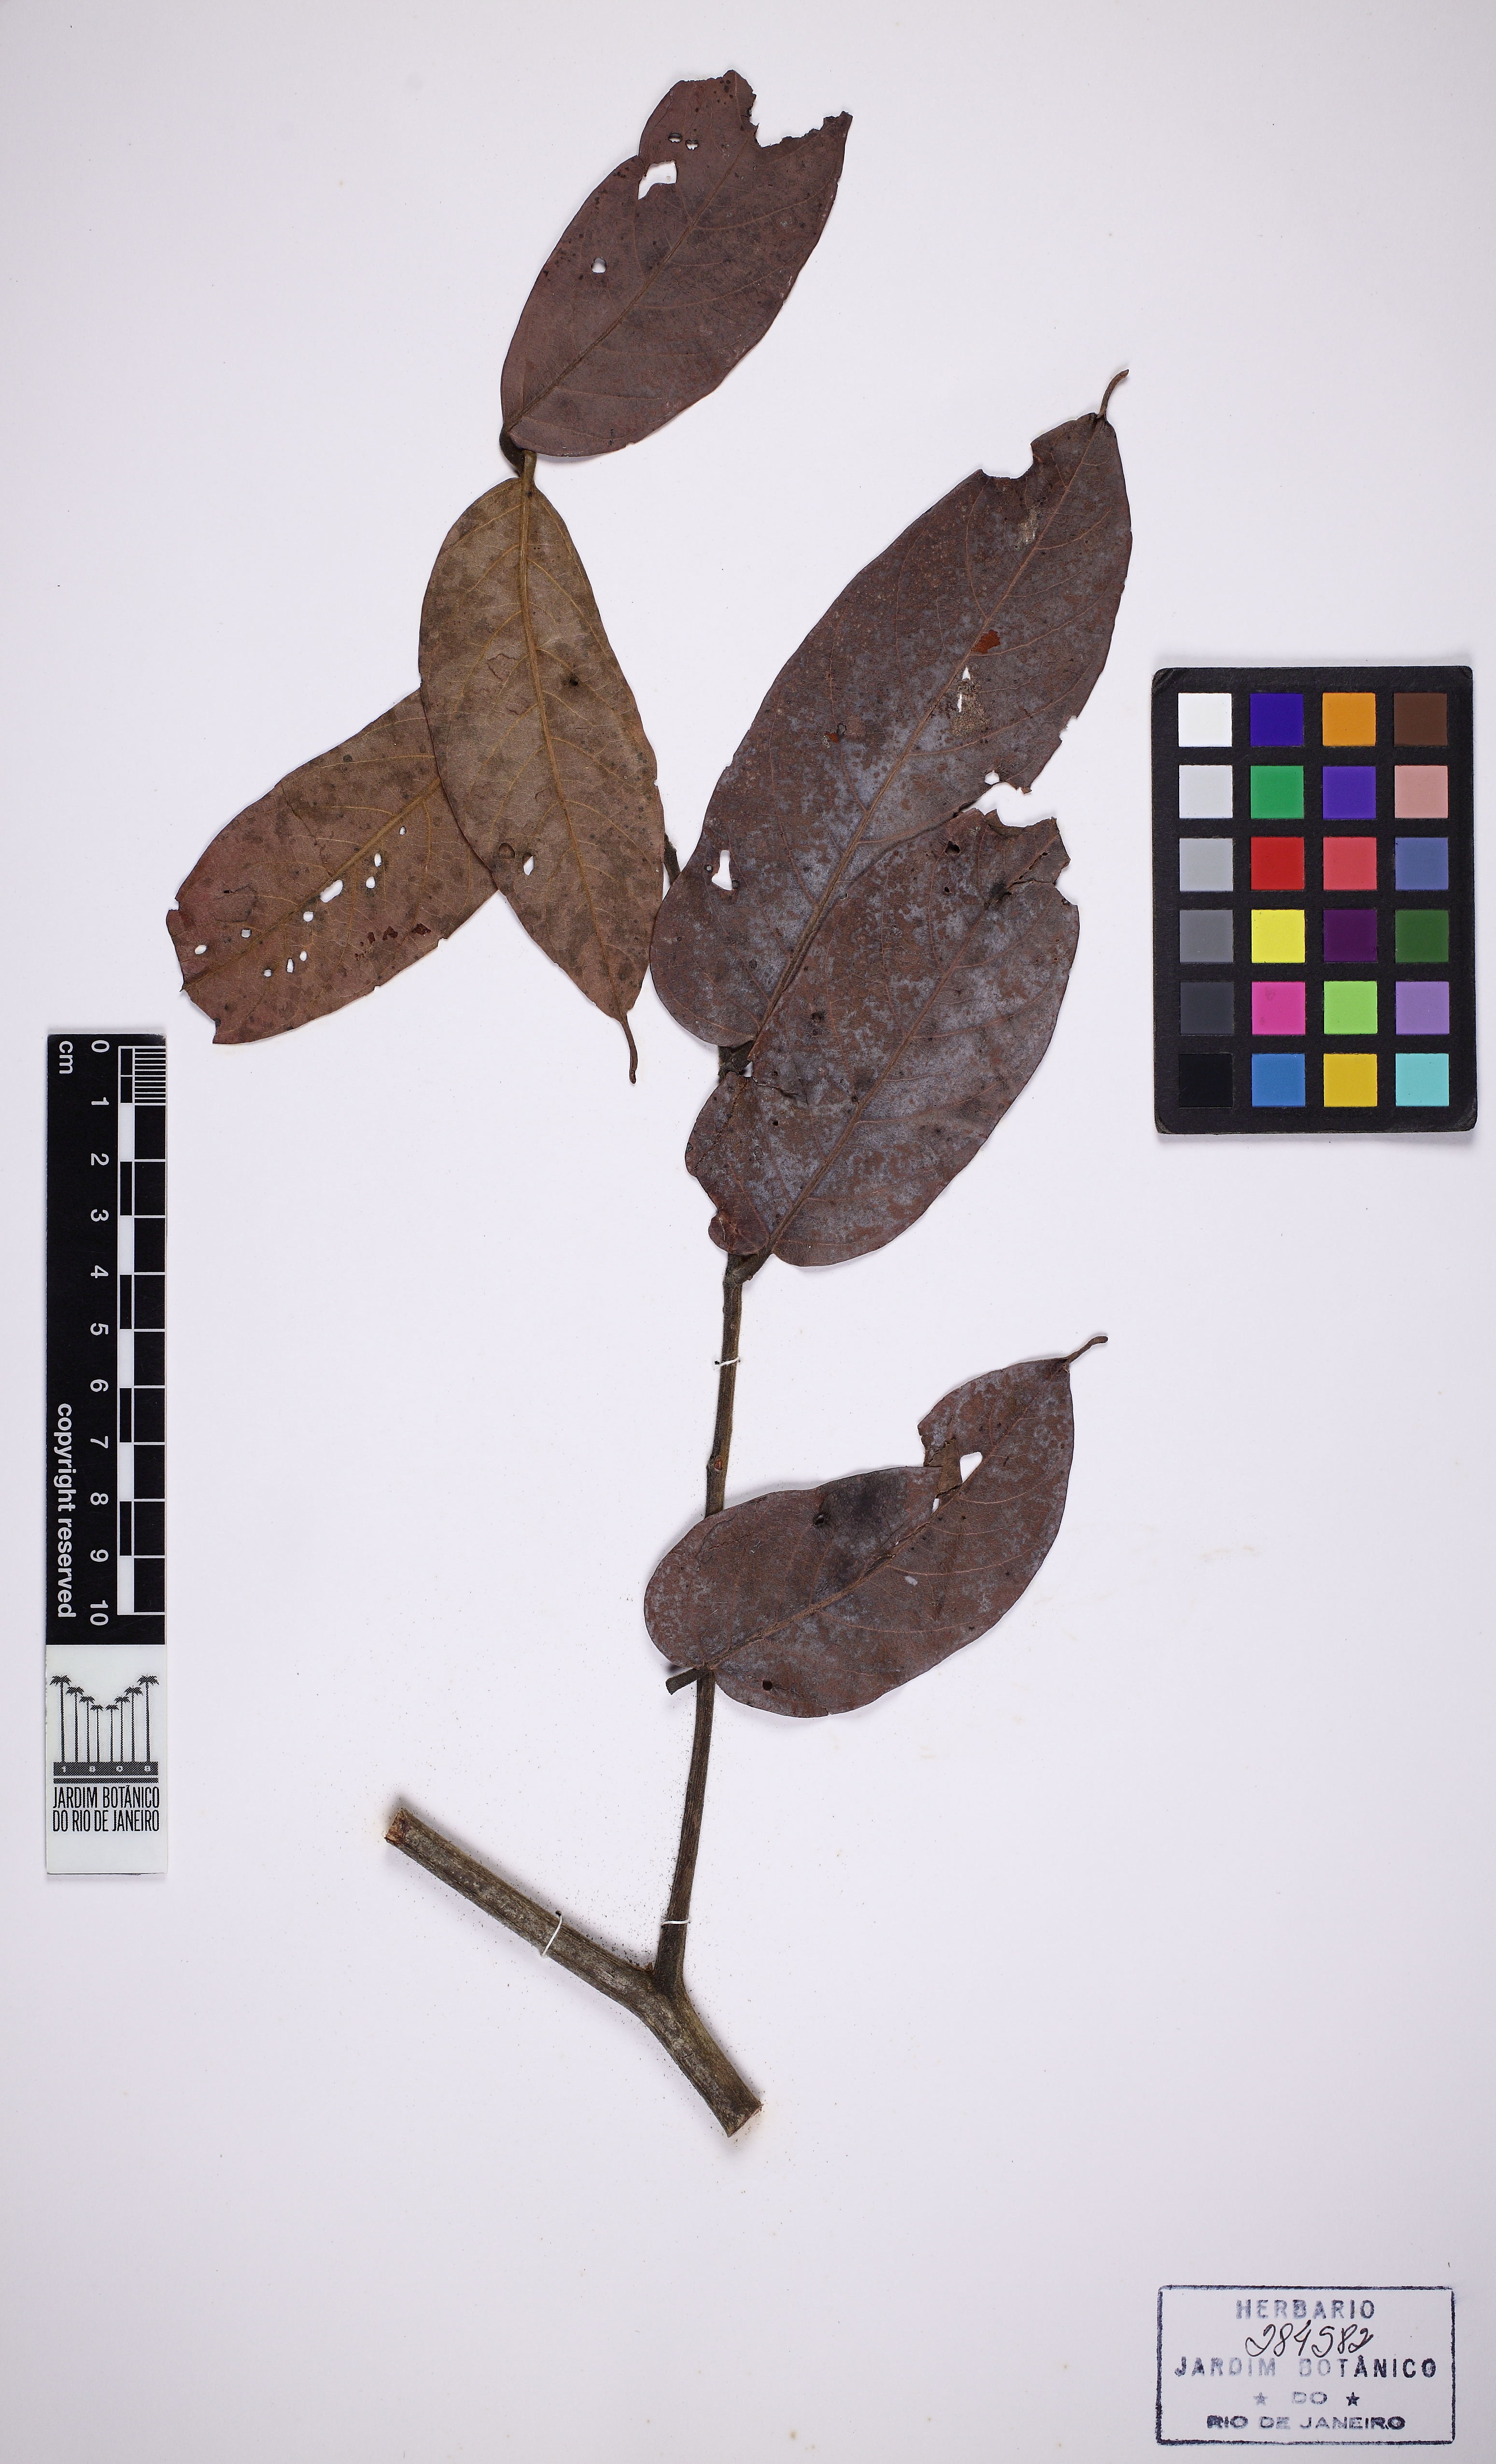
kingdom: Plantae
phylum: Tracheophyta
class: Magnoliopsida
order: Fabales
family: Fabaceae
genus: Tachigali
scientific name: Tachigali rubiginosa
